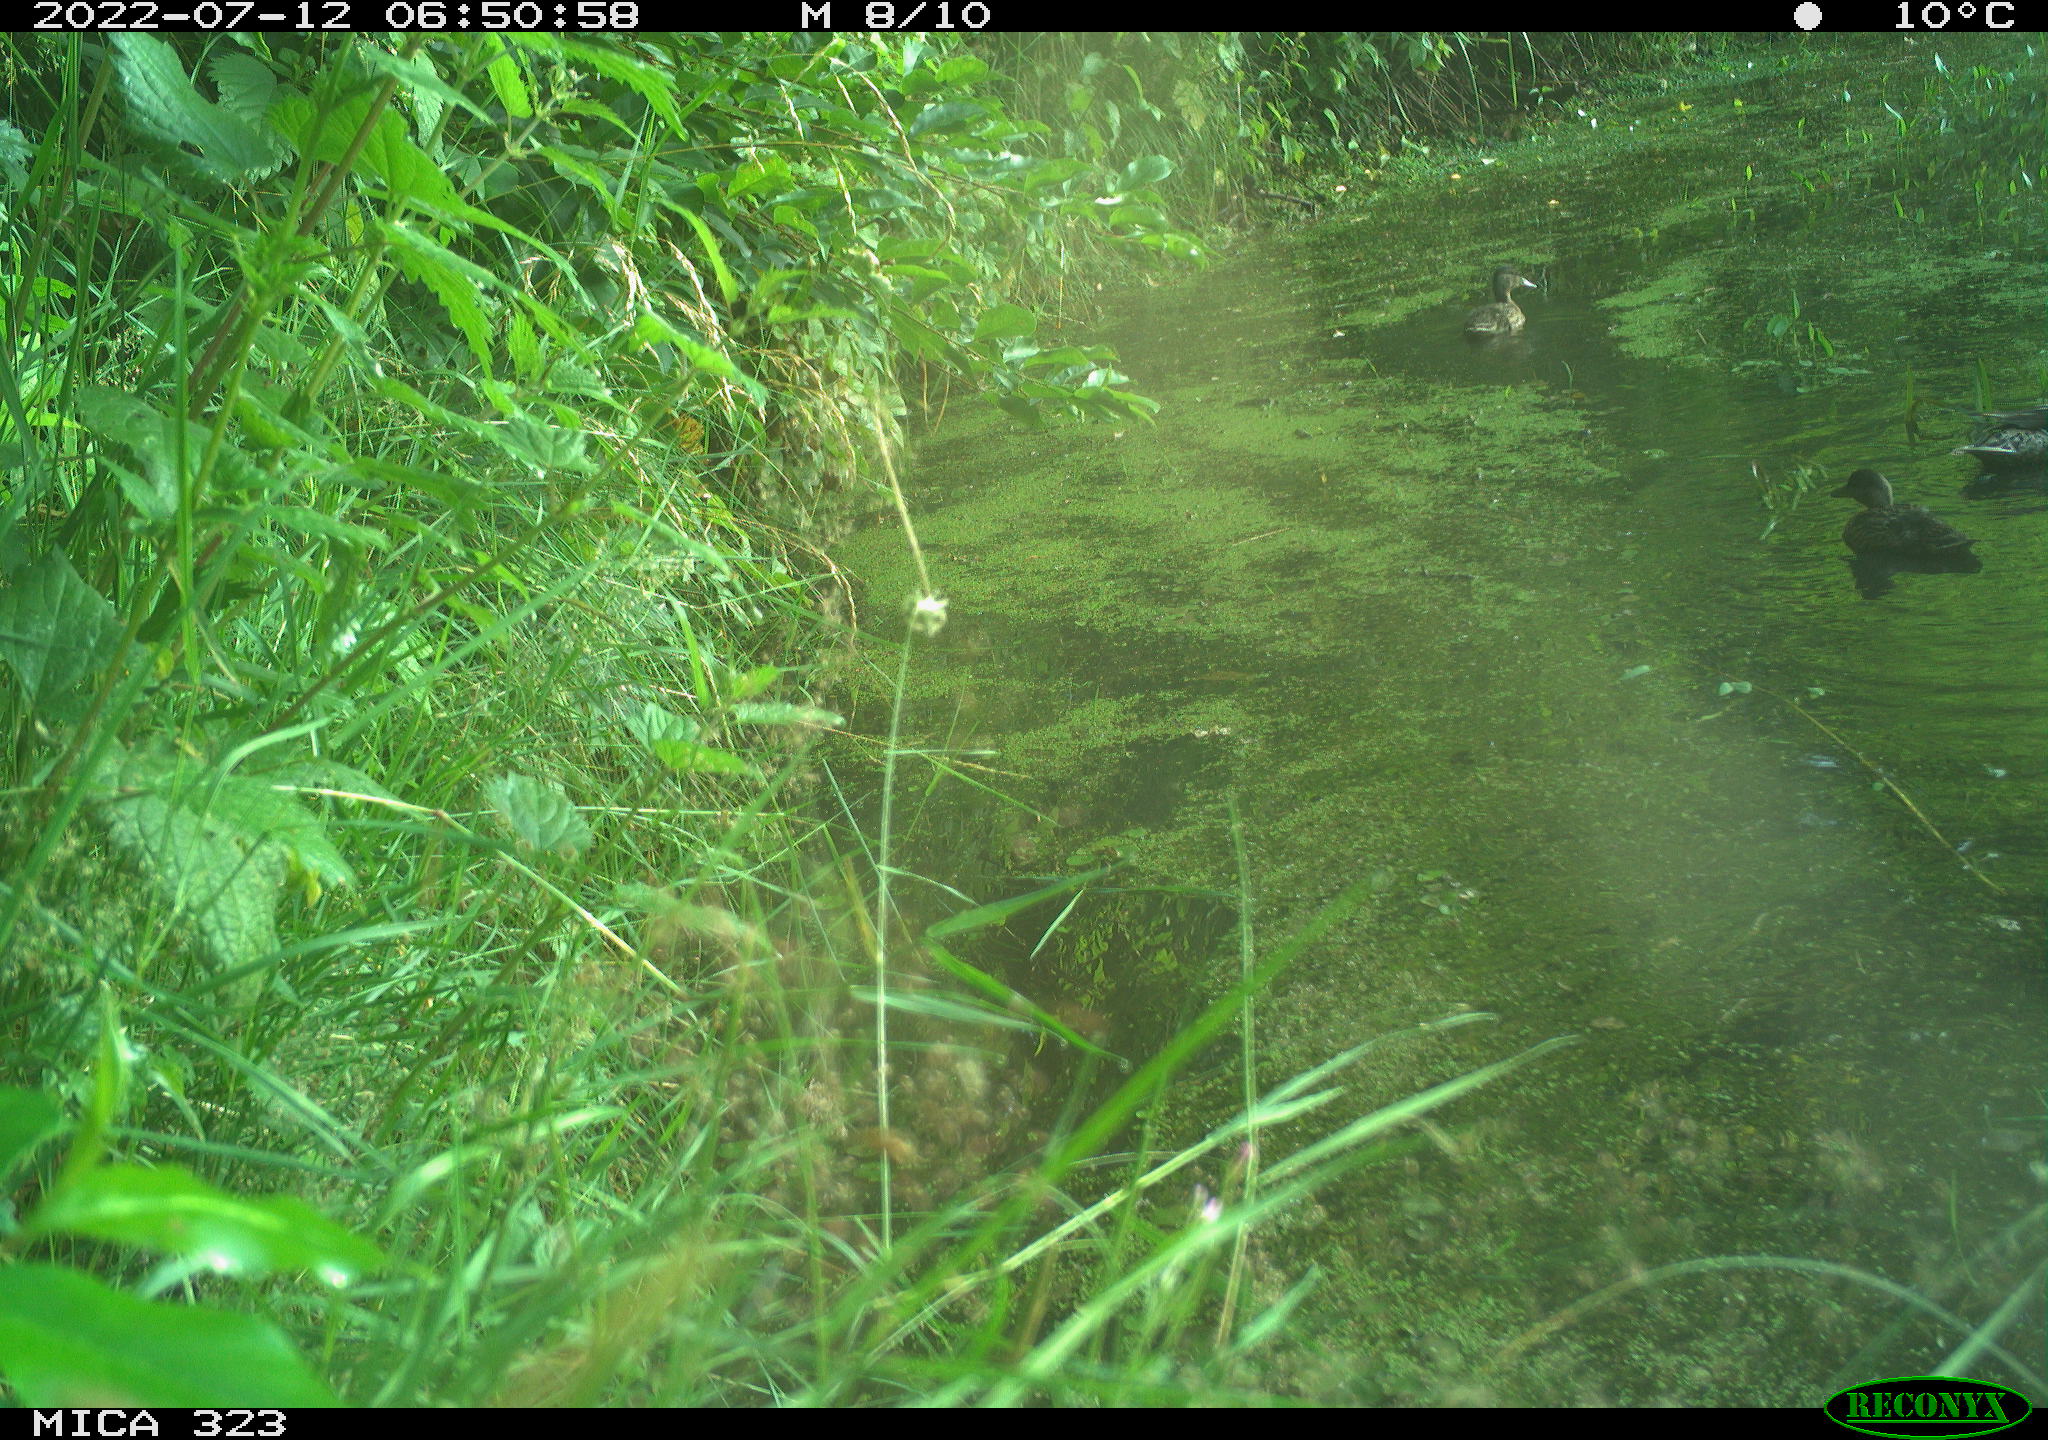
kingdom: Animalia
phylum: Chordata
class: Aves
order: Anseriformes
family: Anatidae
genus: Anas
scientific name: Anas platyrhynchos
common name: Mallard
